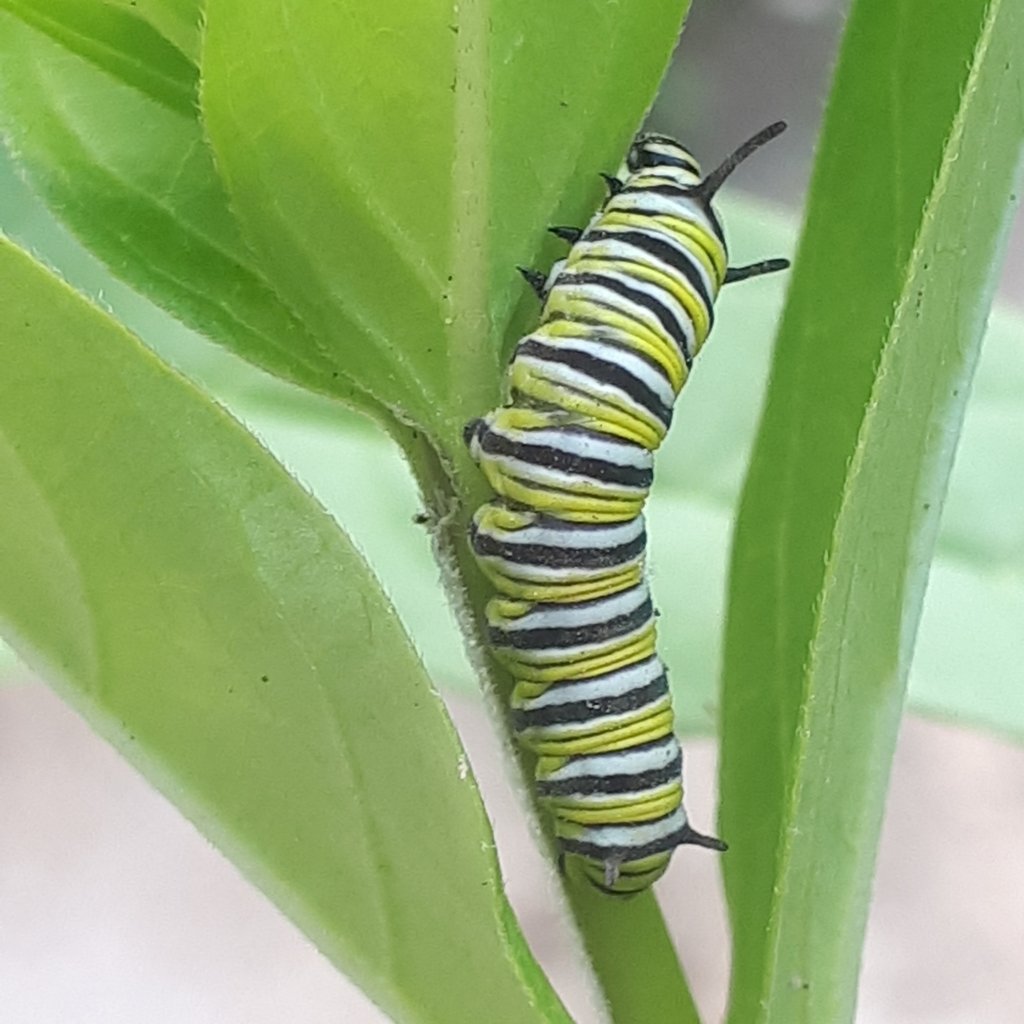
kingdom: Animalia
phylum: Arthropoda
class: Insecta
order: Lepidoptera
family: Nymphalidae
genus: Danaus
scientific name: Danaus plexippus
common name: Monarch
